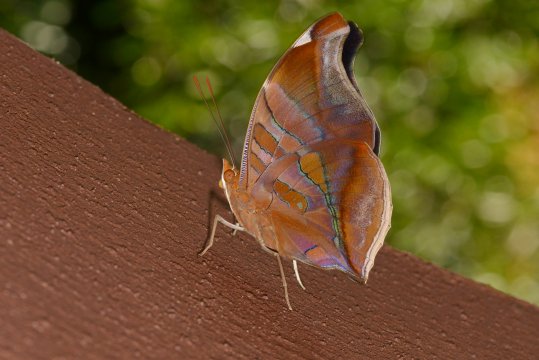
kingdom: Animalia
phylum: Arthropoda
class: Insecta
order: Lepidoptera
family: Nymphalidae
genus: Historis
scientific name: Historis odius
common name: Orion Cecropian
